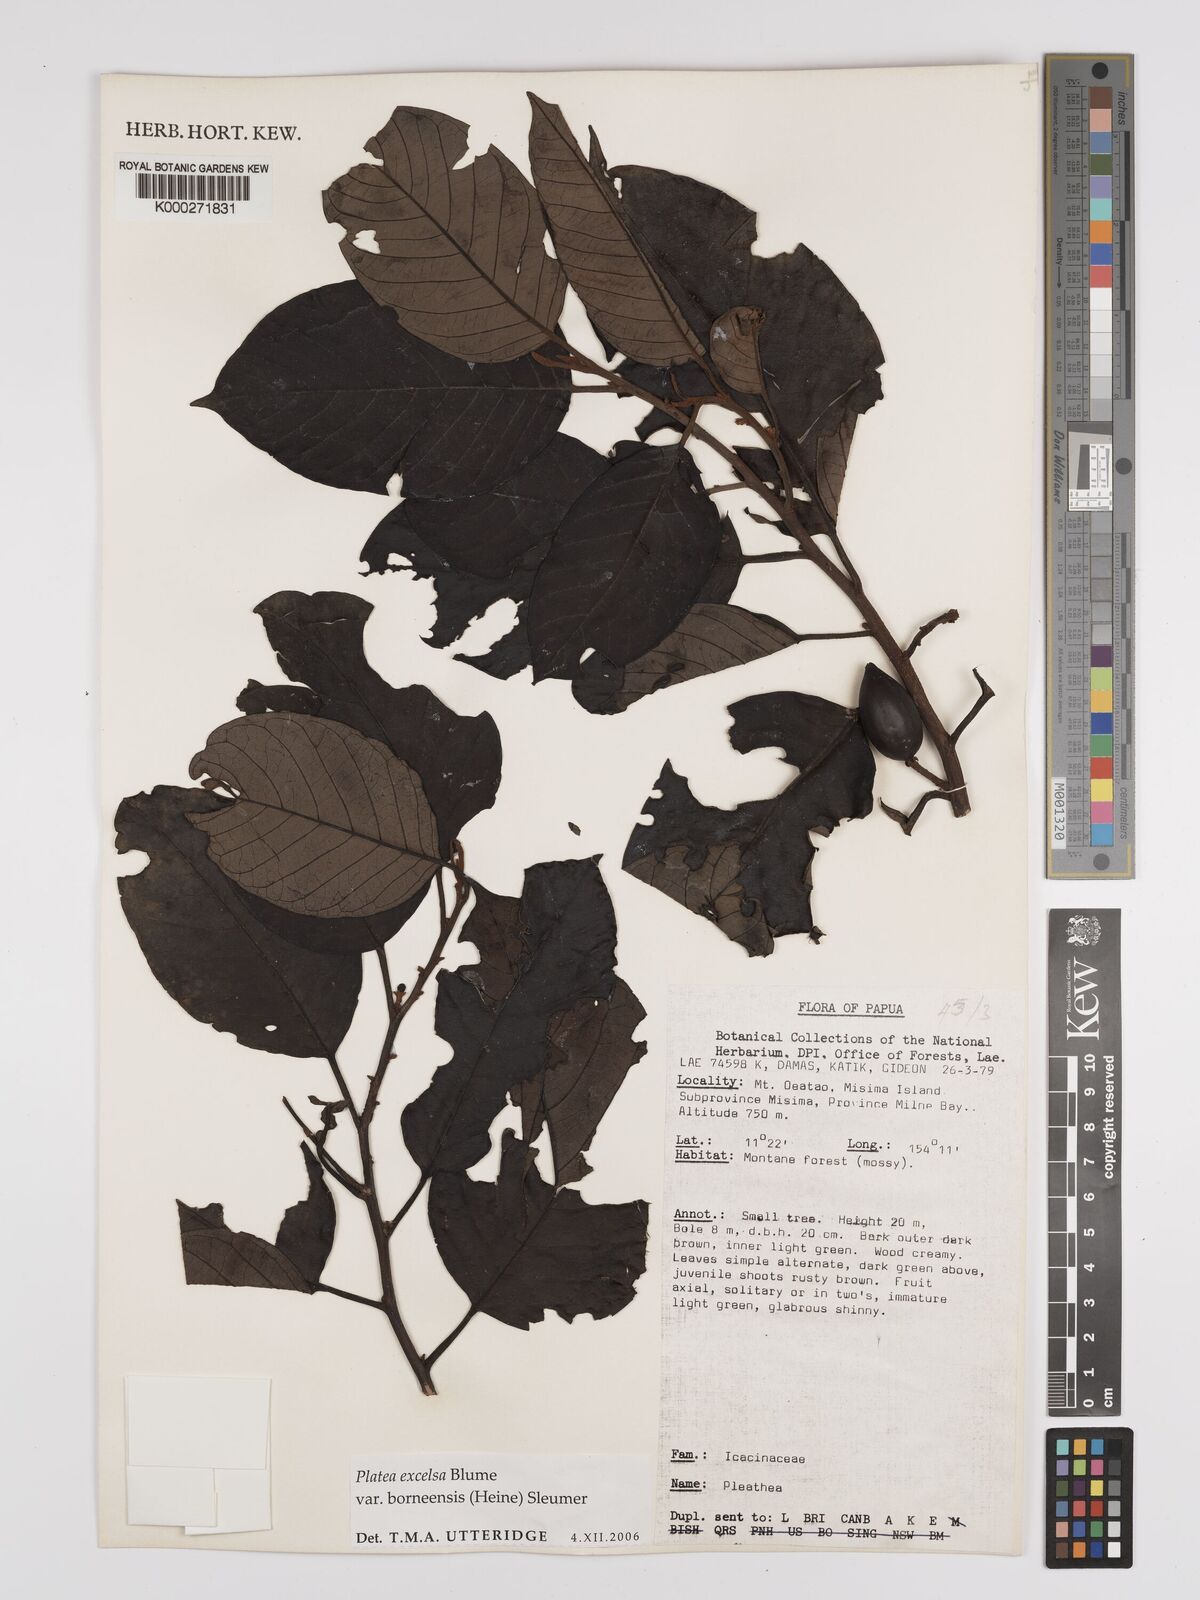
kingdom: Plantae
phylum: Tracheophyta
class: Magnoliopsida
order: Metteniusales
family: Metteniusaceae
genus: Platea
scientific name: Platea excelsa
